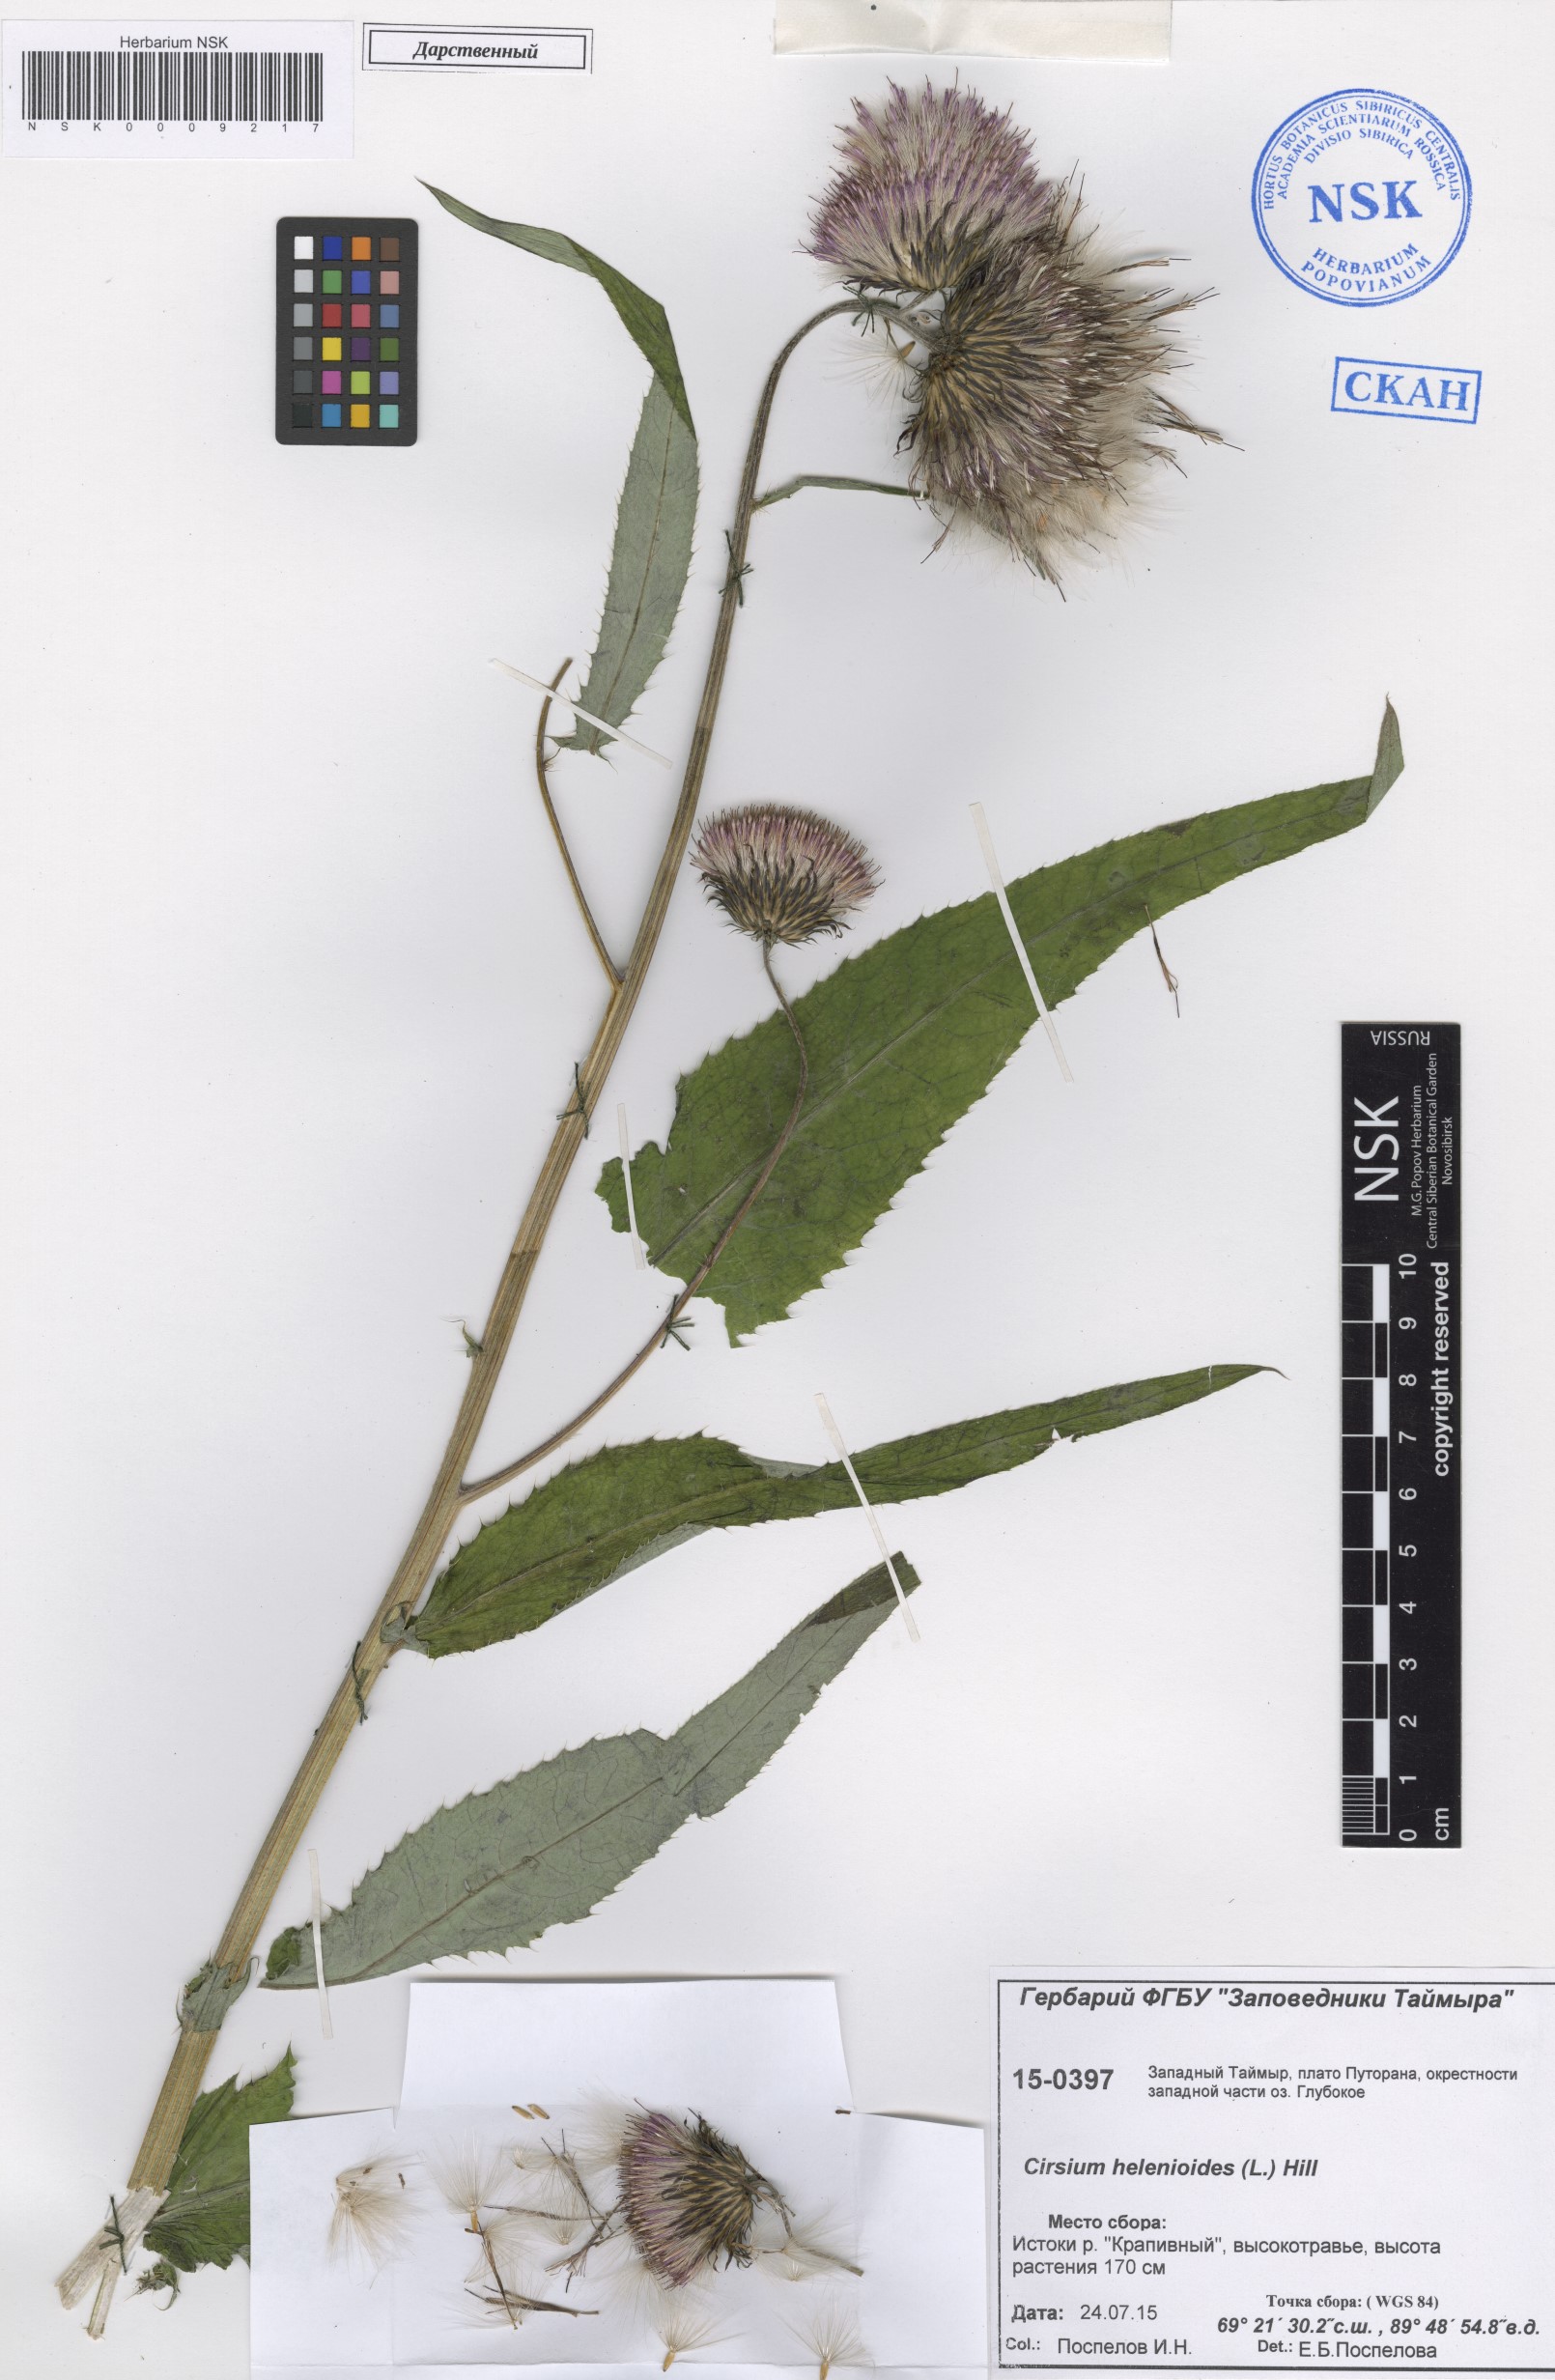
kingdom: Plantae
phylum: Tracheophyta
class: Magnoliopsida
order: Asterales
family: Asteraceae
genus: Cirsium
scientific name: Cirsium helenioides
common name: Melancholy thistle
